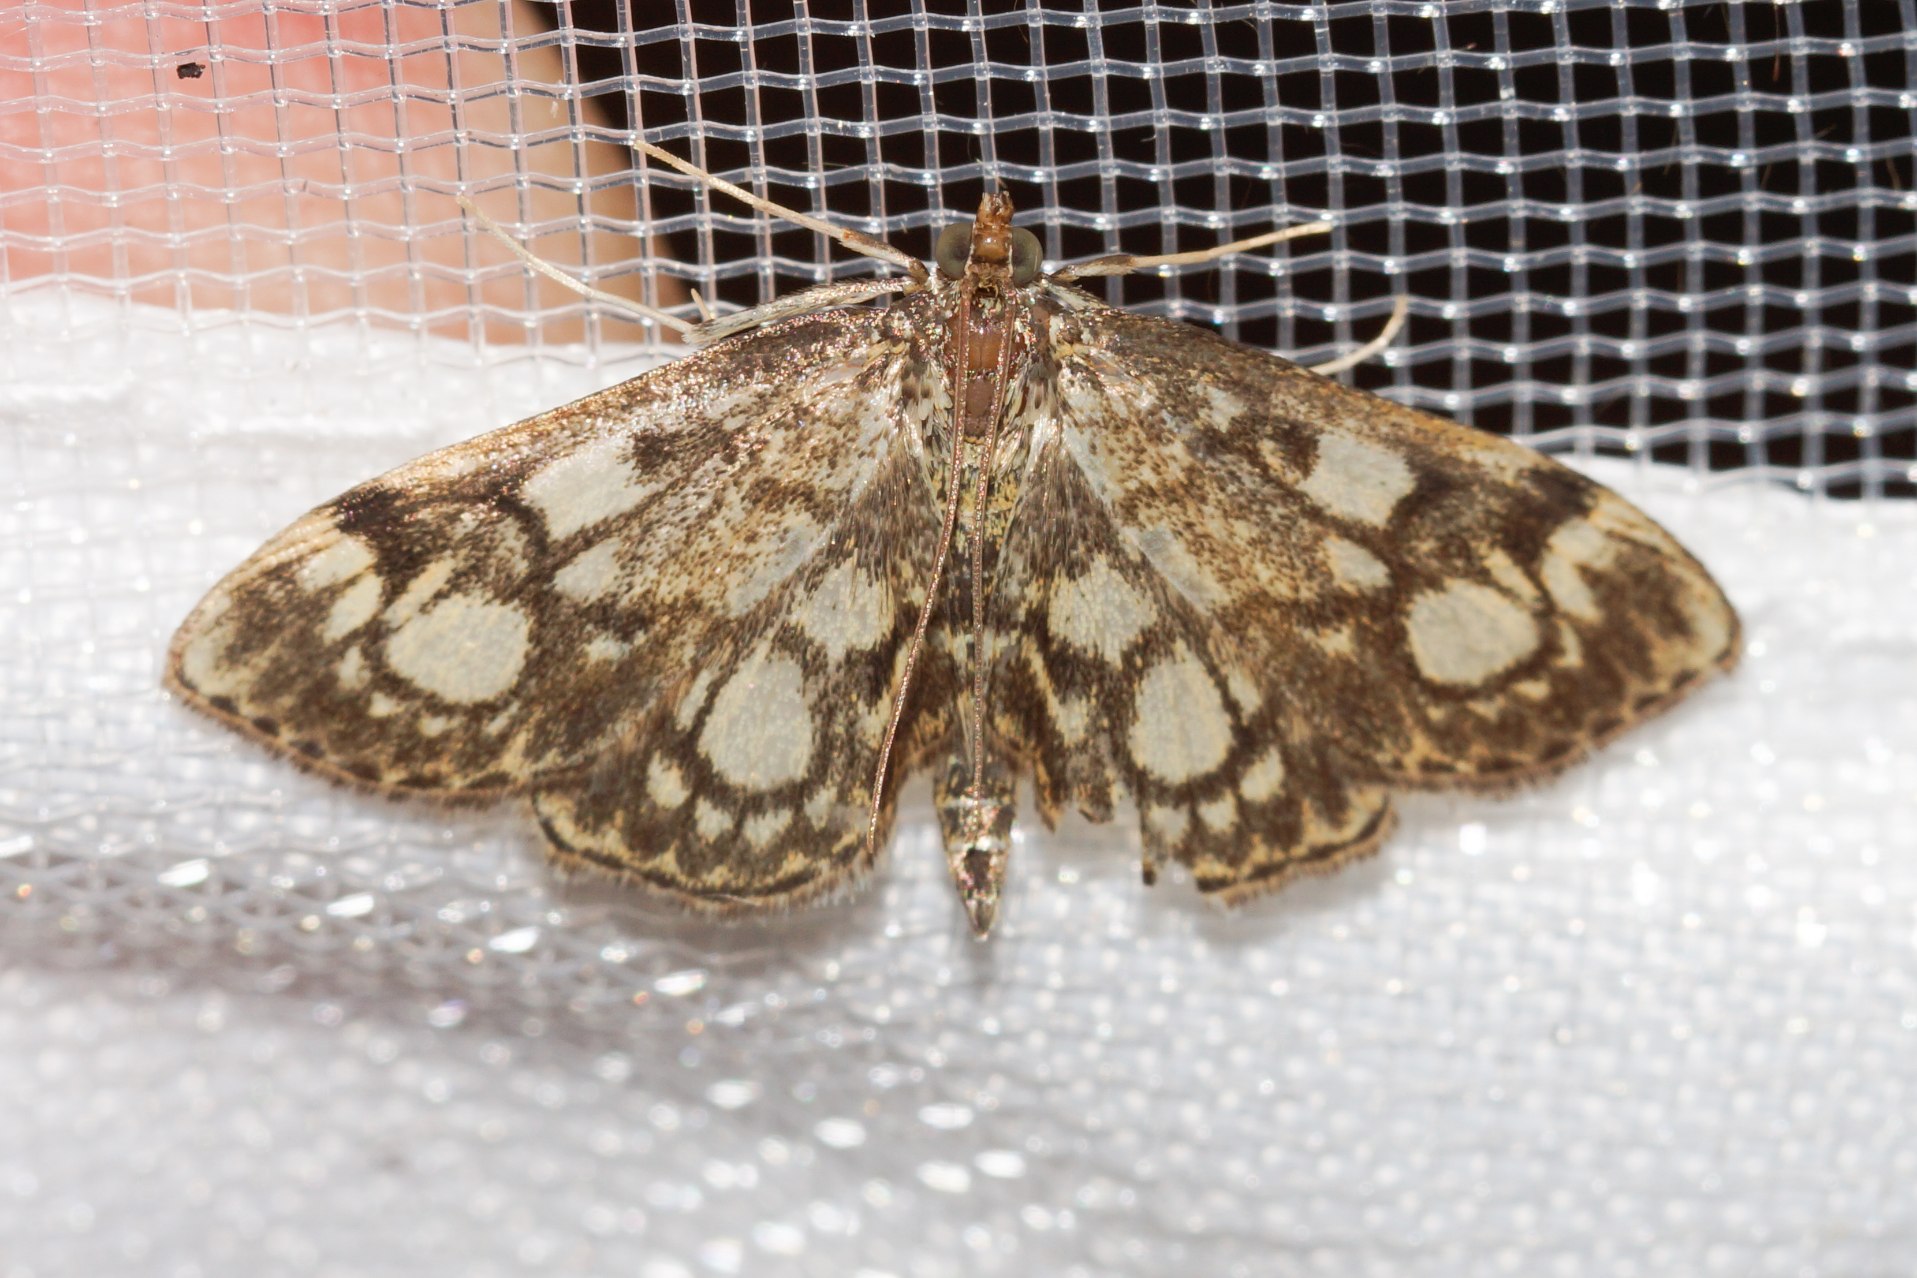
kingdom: Animalia
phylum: Arthropoda
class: Insecta
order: Lepidoptera
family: Crambidae
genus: Anania
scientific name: Anania coronata
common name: Hyldehalvmøl
